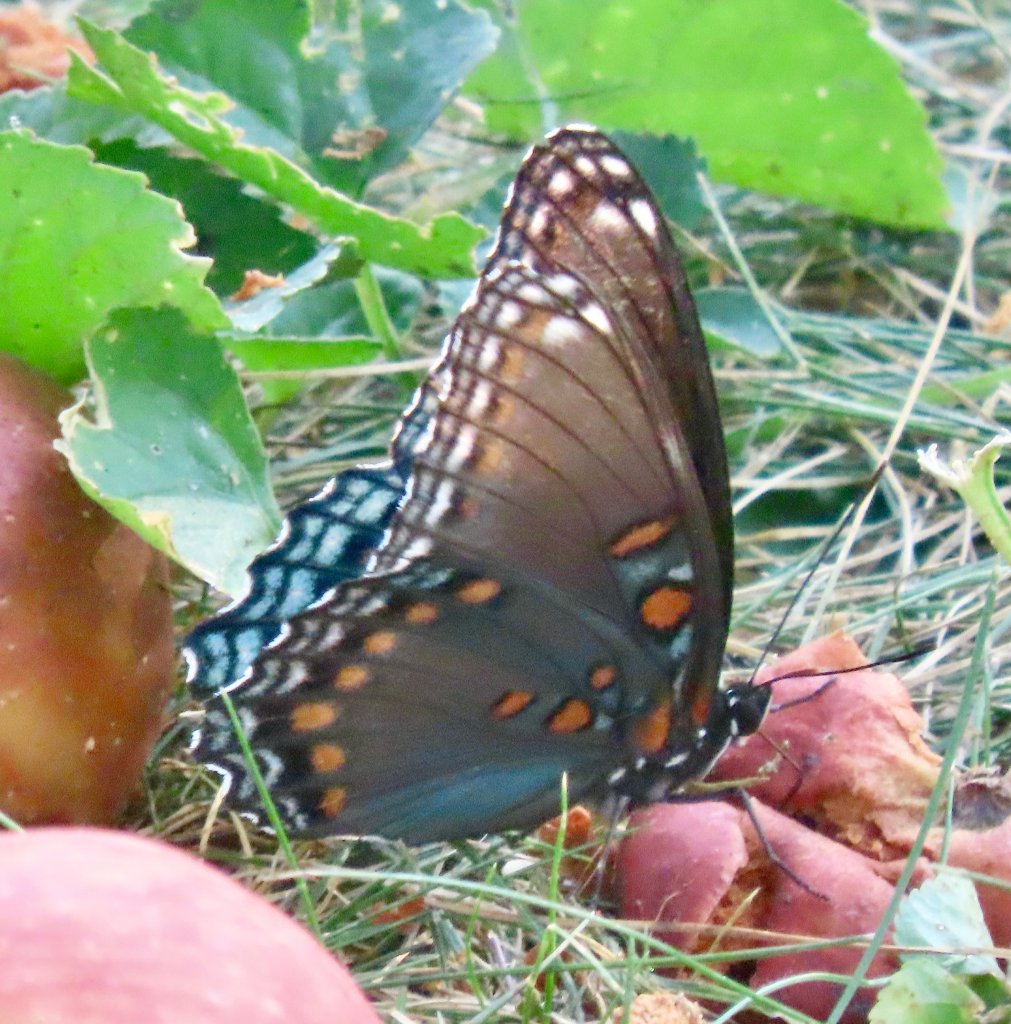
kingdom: Animalia
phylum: Arthropoda
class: Insecta
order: Lepidoptera
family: Nymphalidae
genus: Limenitis
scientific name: Limenitis arthemis
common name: Red-spotted Admiral
